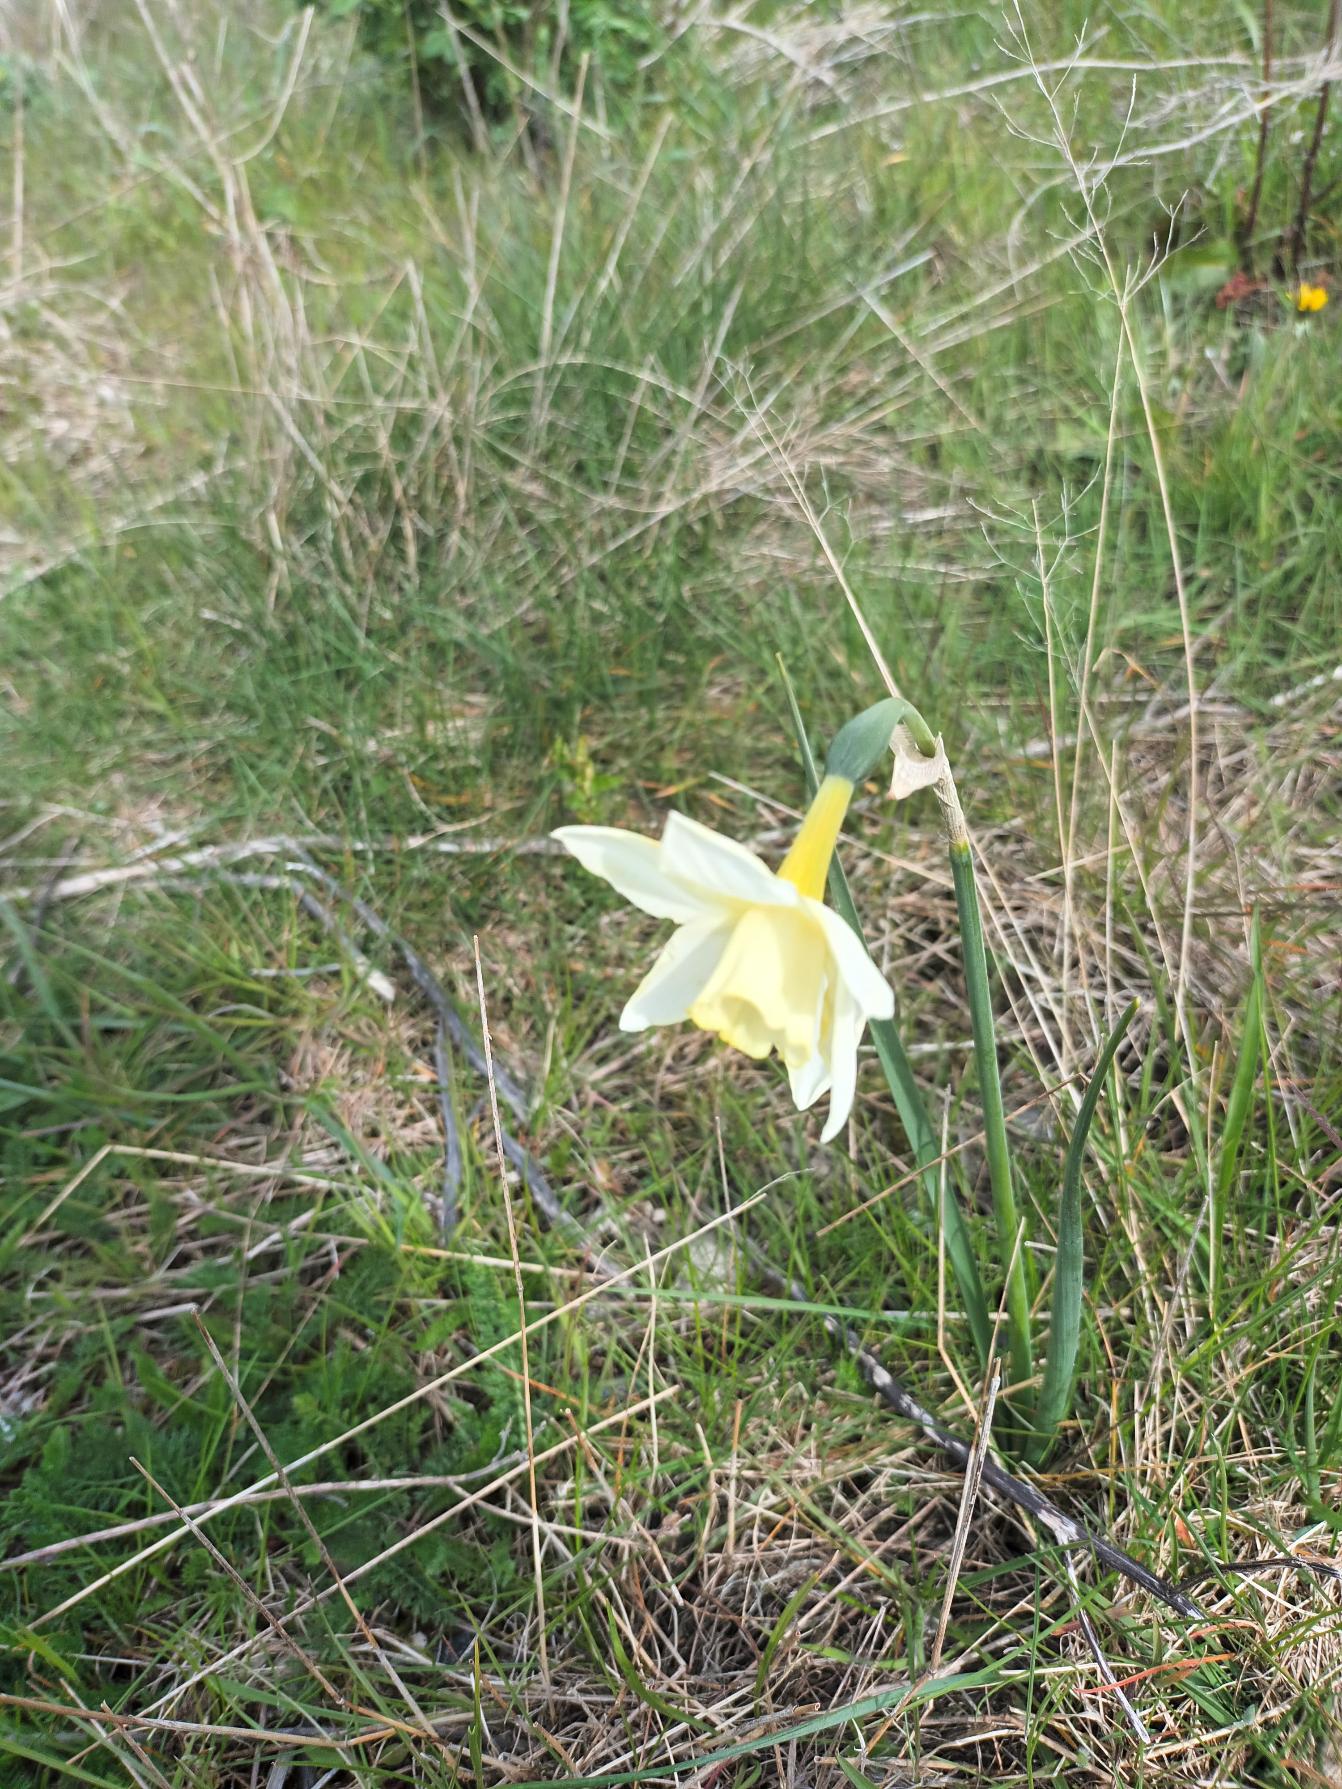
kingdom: Plantae
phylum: Tracheophyta
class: Liliopsida
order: Asparagales
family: Amaryllidaceae
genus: Narcissus
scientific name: Narcissus boutignyanus
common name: Svanehalsnarcis
